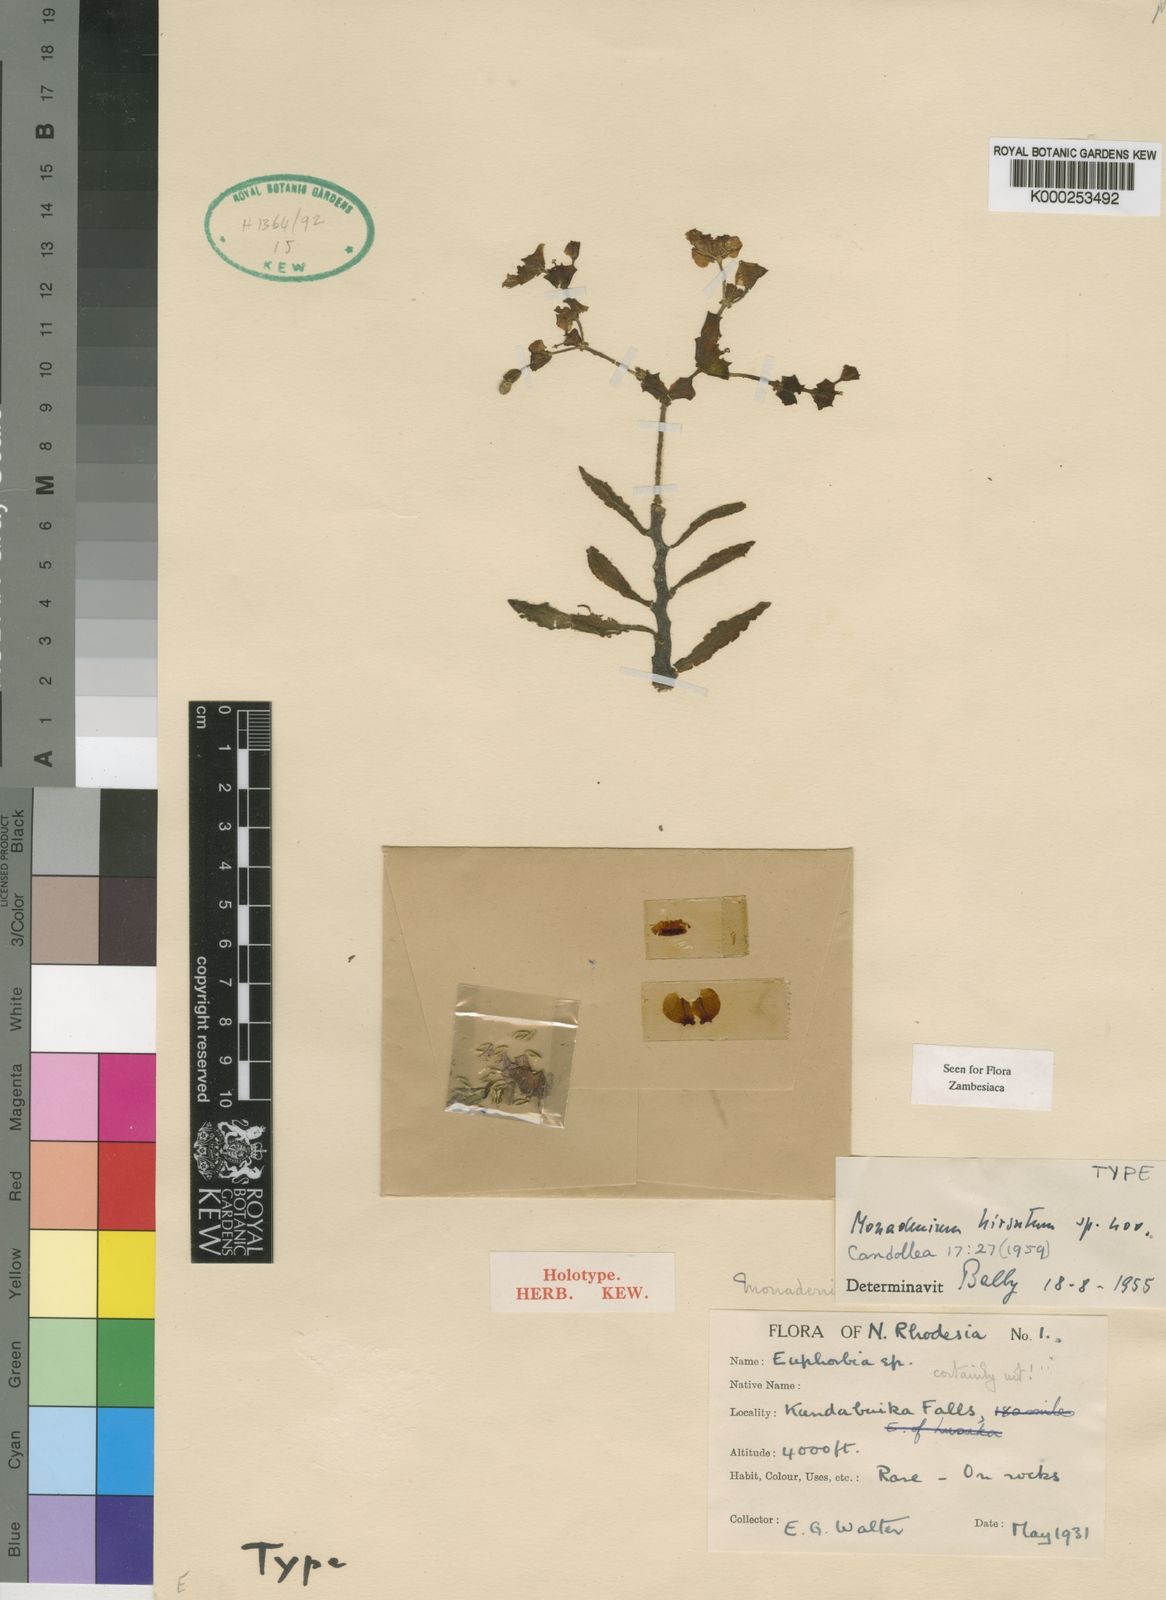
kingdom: Plantae
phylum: Tracheophyta
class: Magnoliopsida
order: Malpighiales
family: Euphorbiaceae
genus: Euphorbia
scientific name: Euphorbia pseudohirsuta
